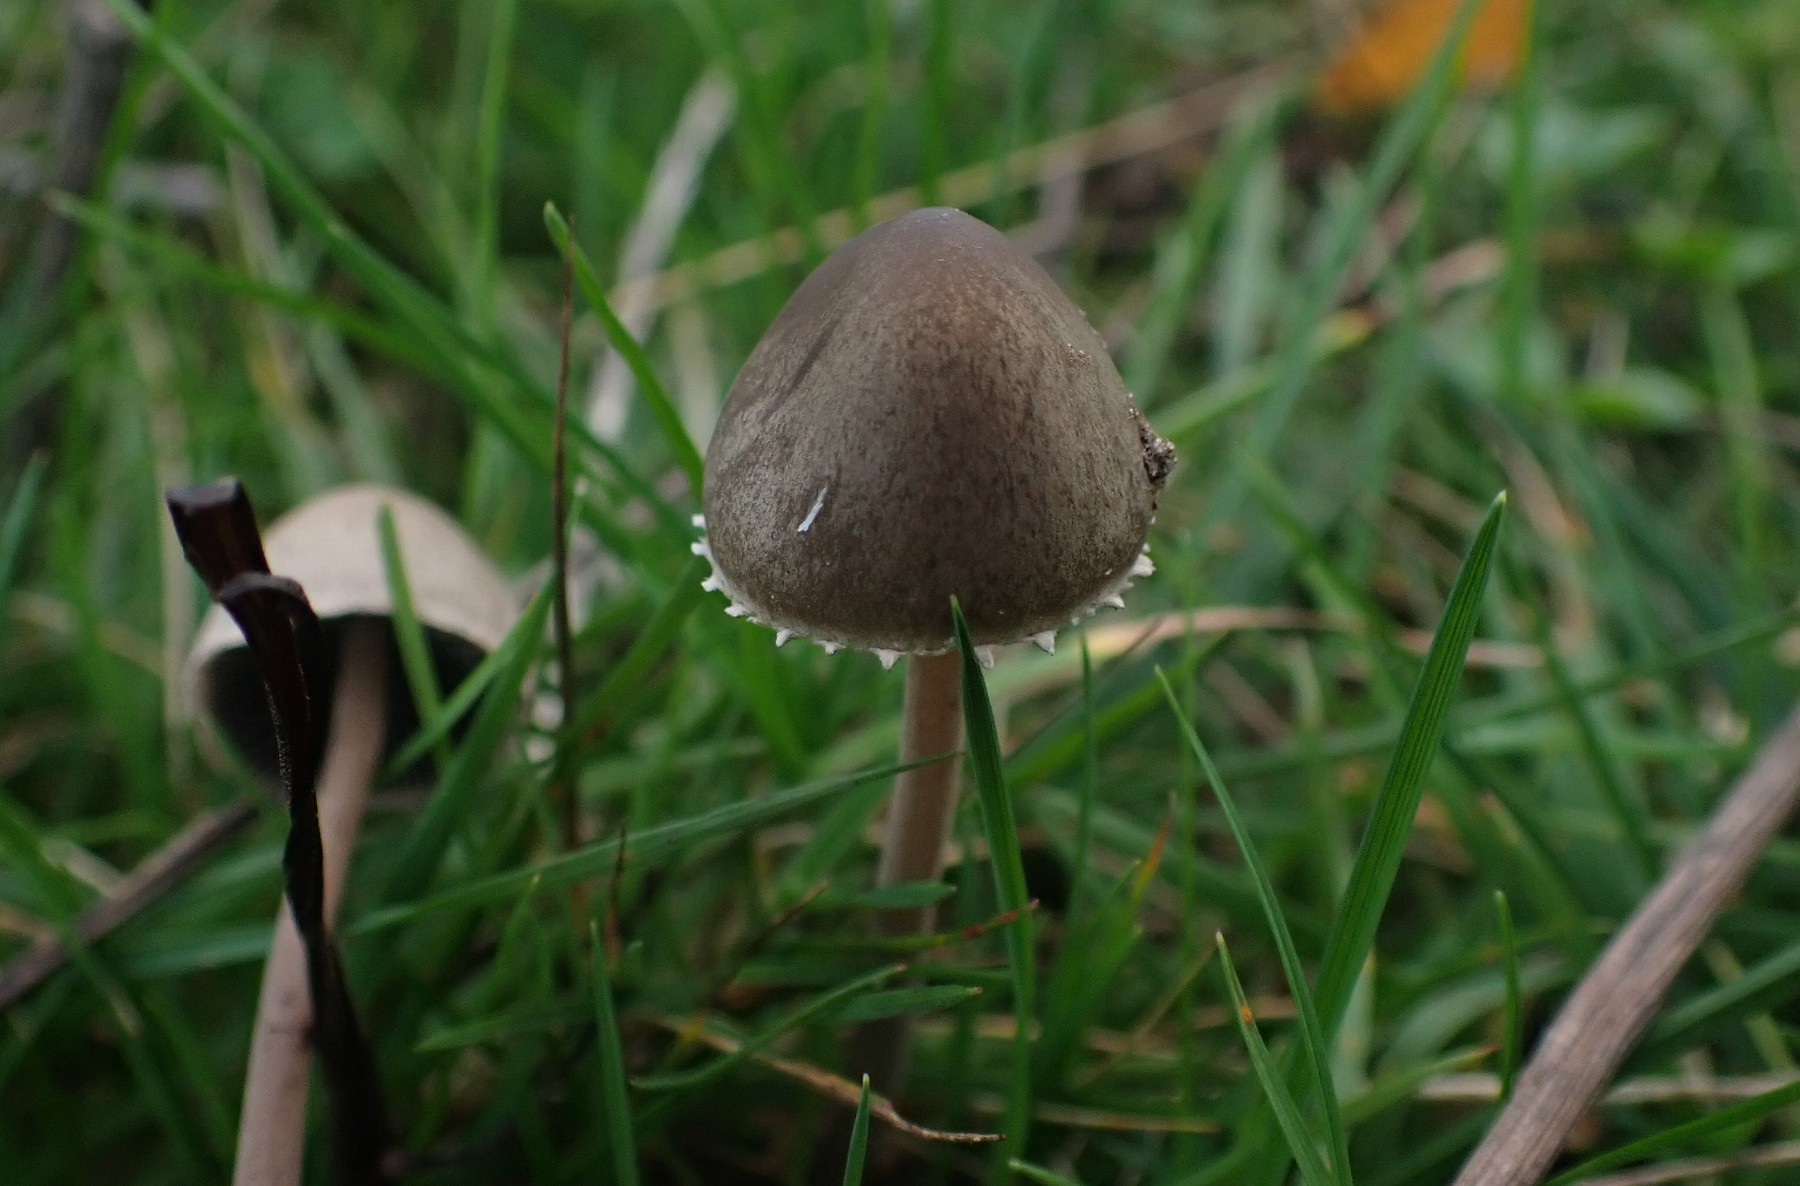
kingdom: Fungi
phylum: Basidiomycota
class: Agaricomycetes
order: Agaricales
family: Bolbitiaceae
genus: Panaeolus
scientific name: Panaeolus papilionaceus
